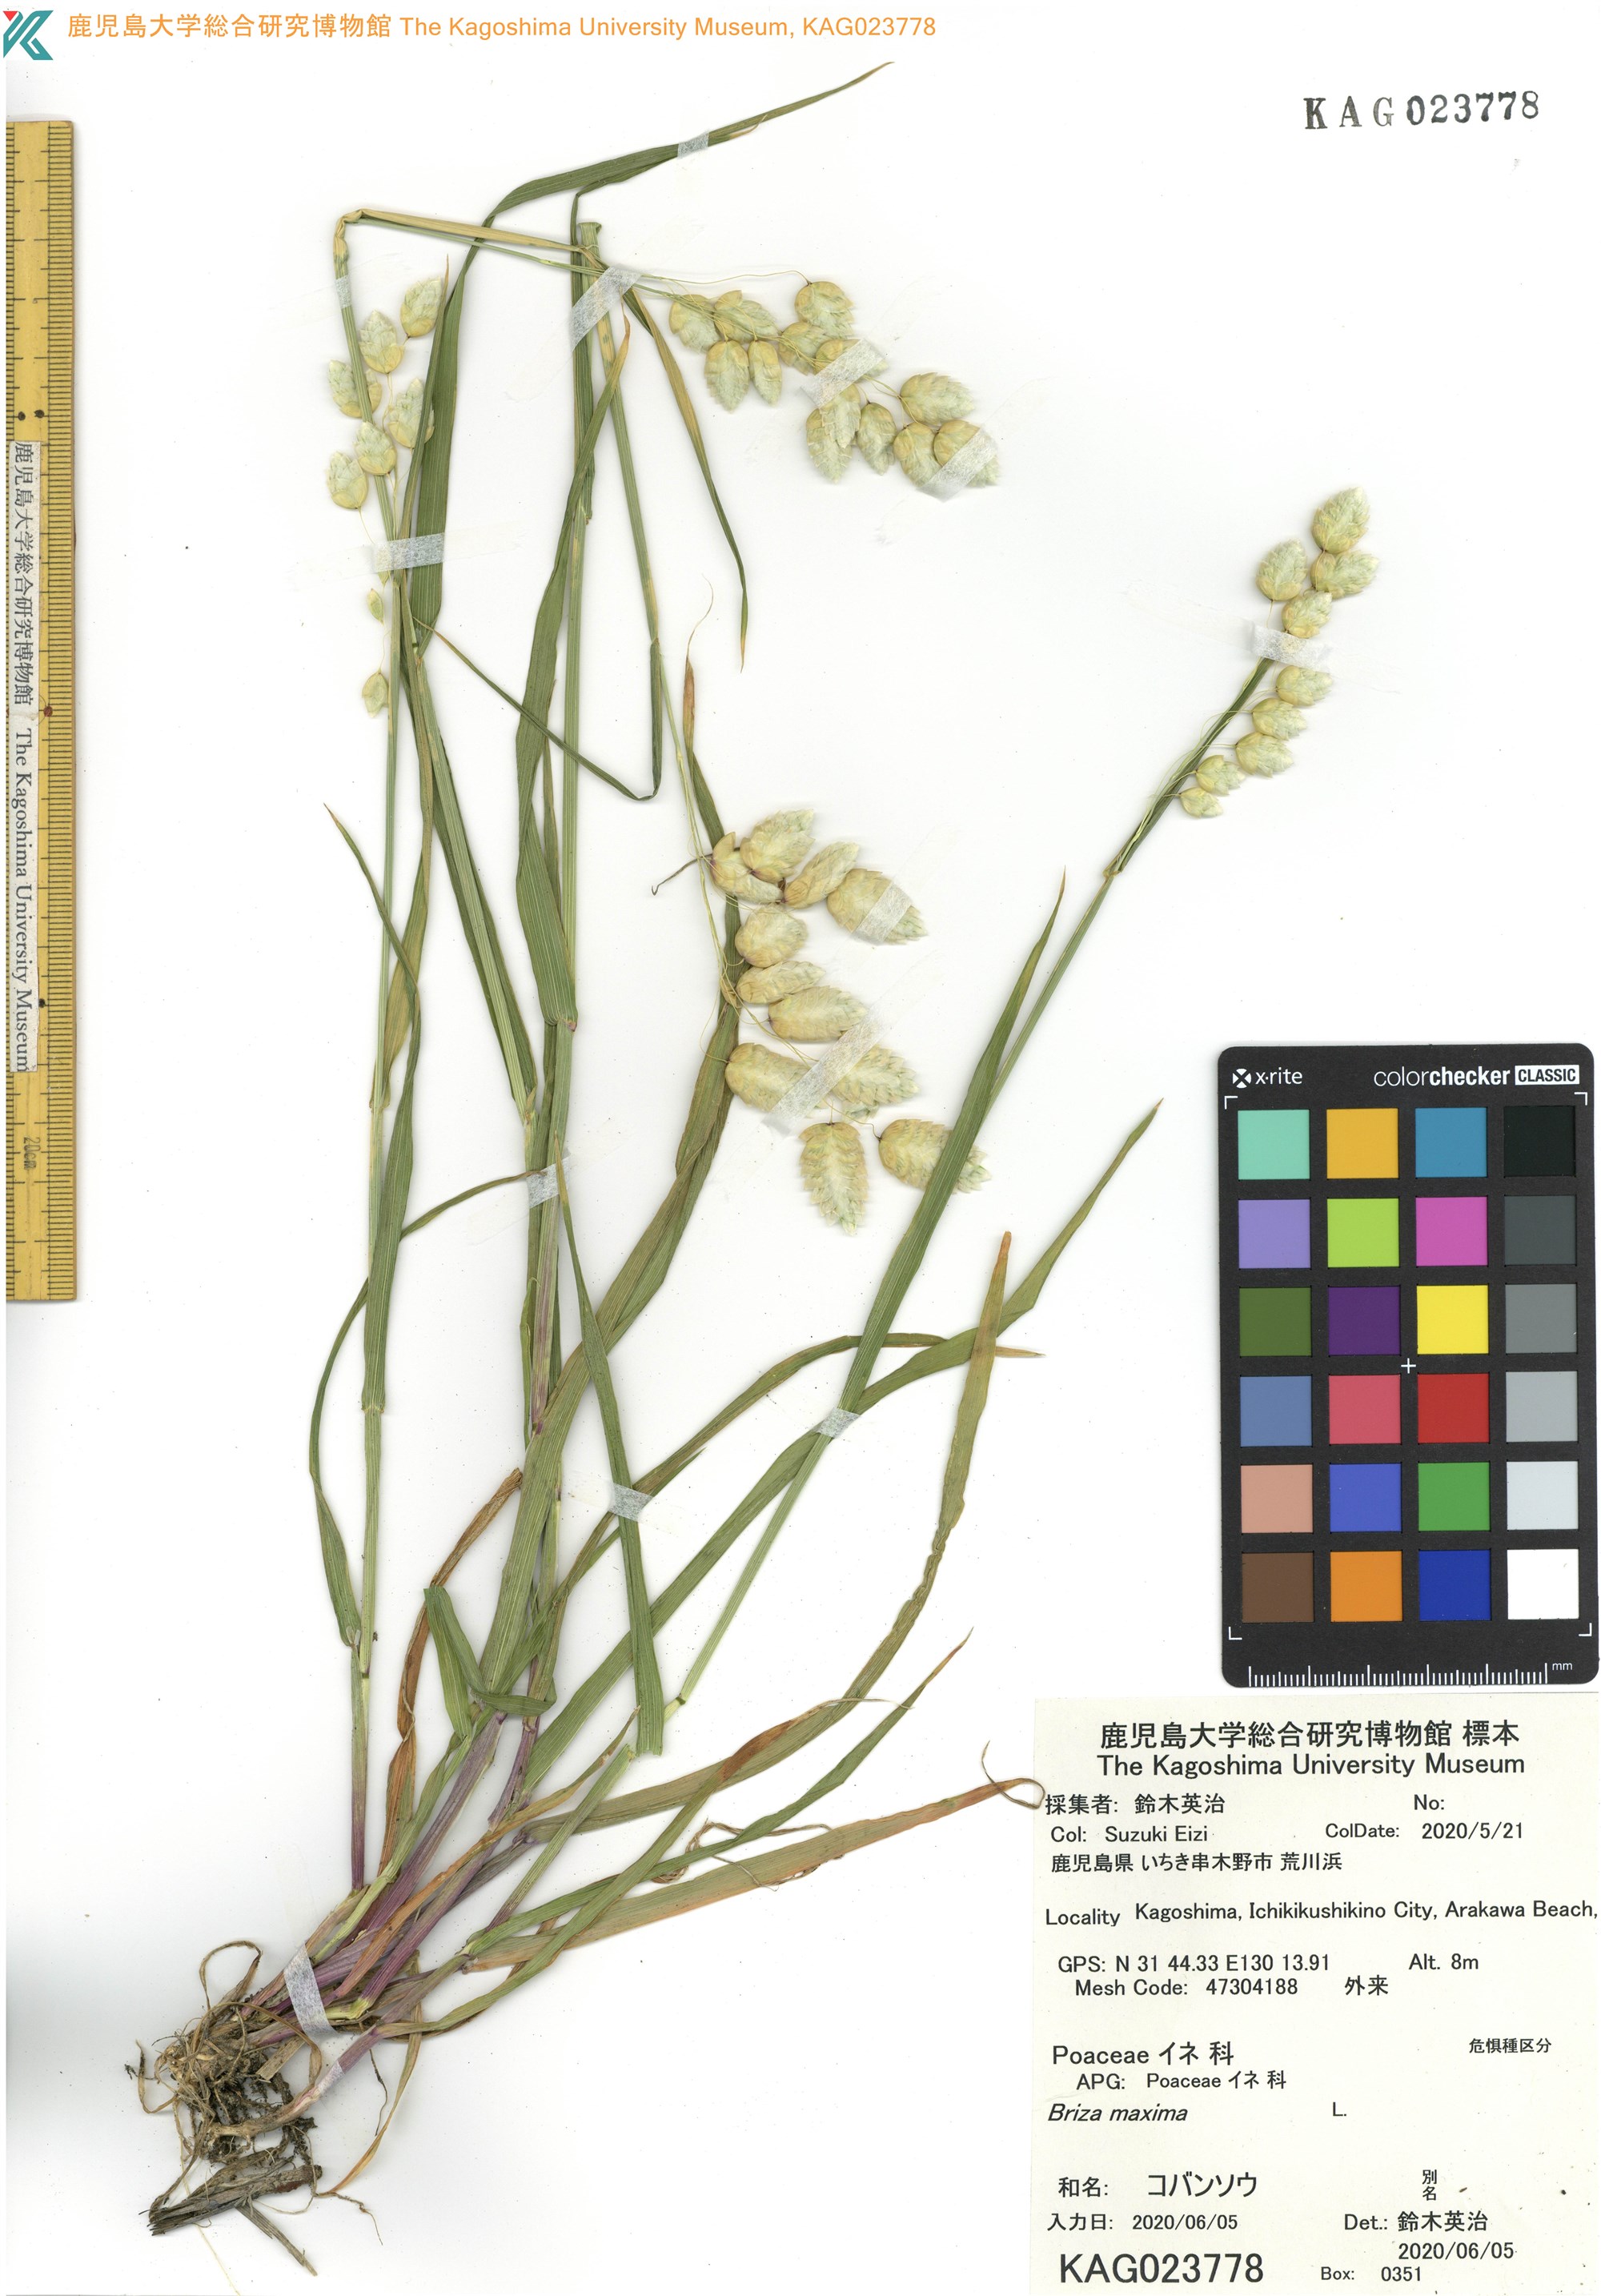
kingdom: Plantae
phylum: Tracheophyta
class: Liliopsida
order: Poales
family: Poaceae
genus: Briza
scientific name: Briza maxima
